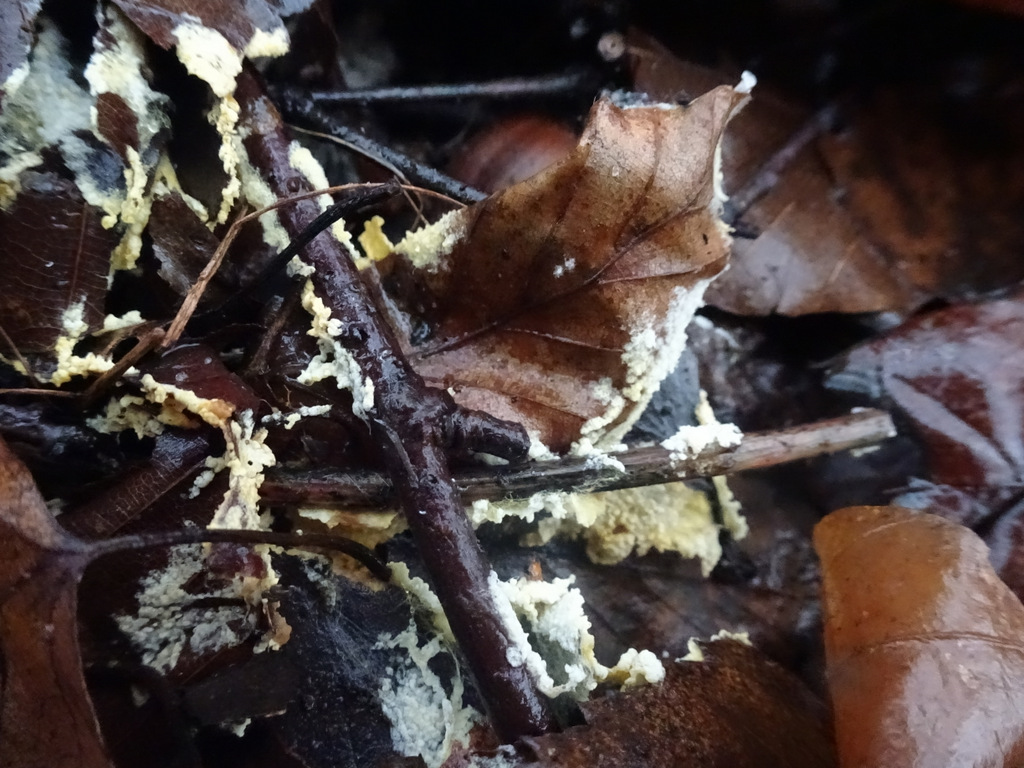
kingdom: Fungi
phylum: Basidiomycota
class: Agaricomycetes
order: Agaricales
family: Stephanosporaceae
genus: Lindtneria
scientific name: Lindtneria panphyliensis
